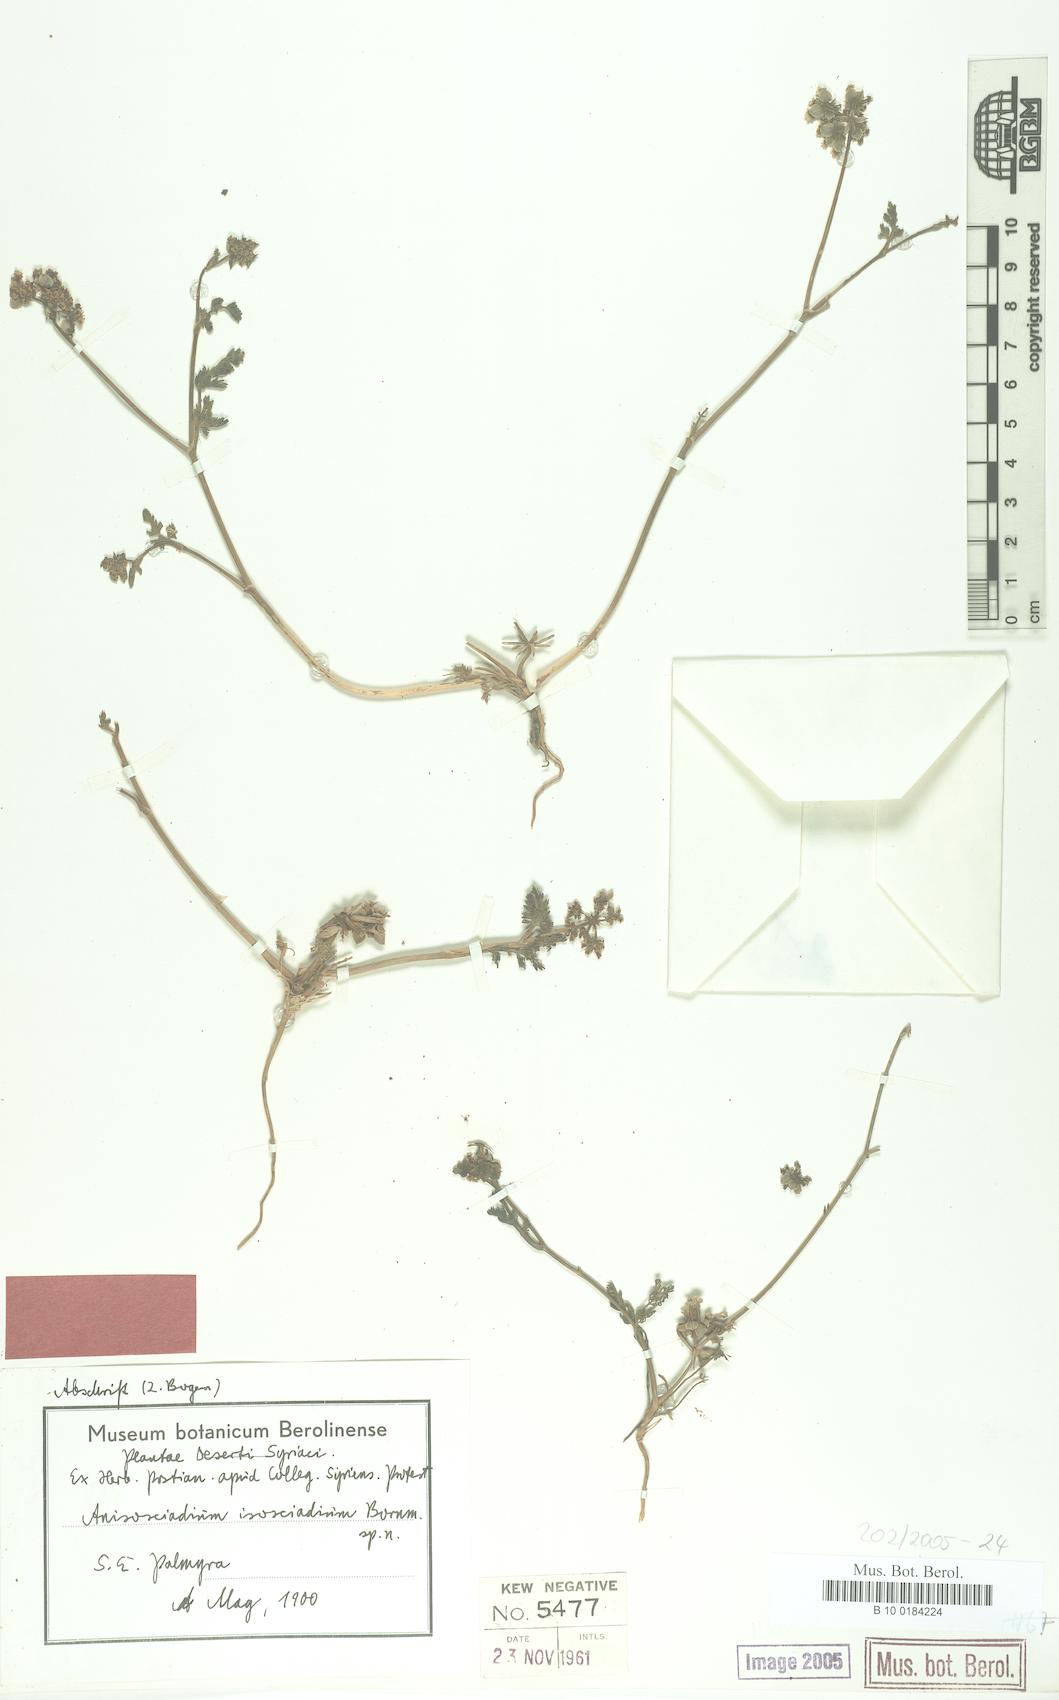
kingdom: Plantae
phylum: Tracheophyta
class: Magnoliopsida
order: Apiales
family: Apiaceae
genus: Anisosciadium
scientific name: Anisosciadium isosciadium
